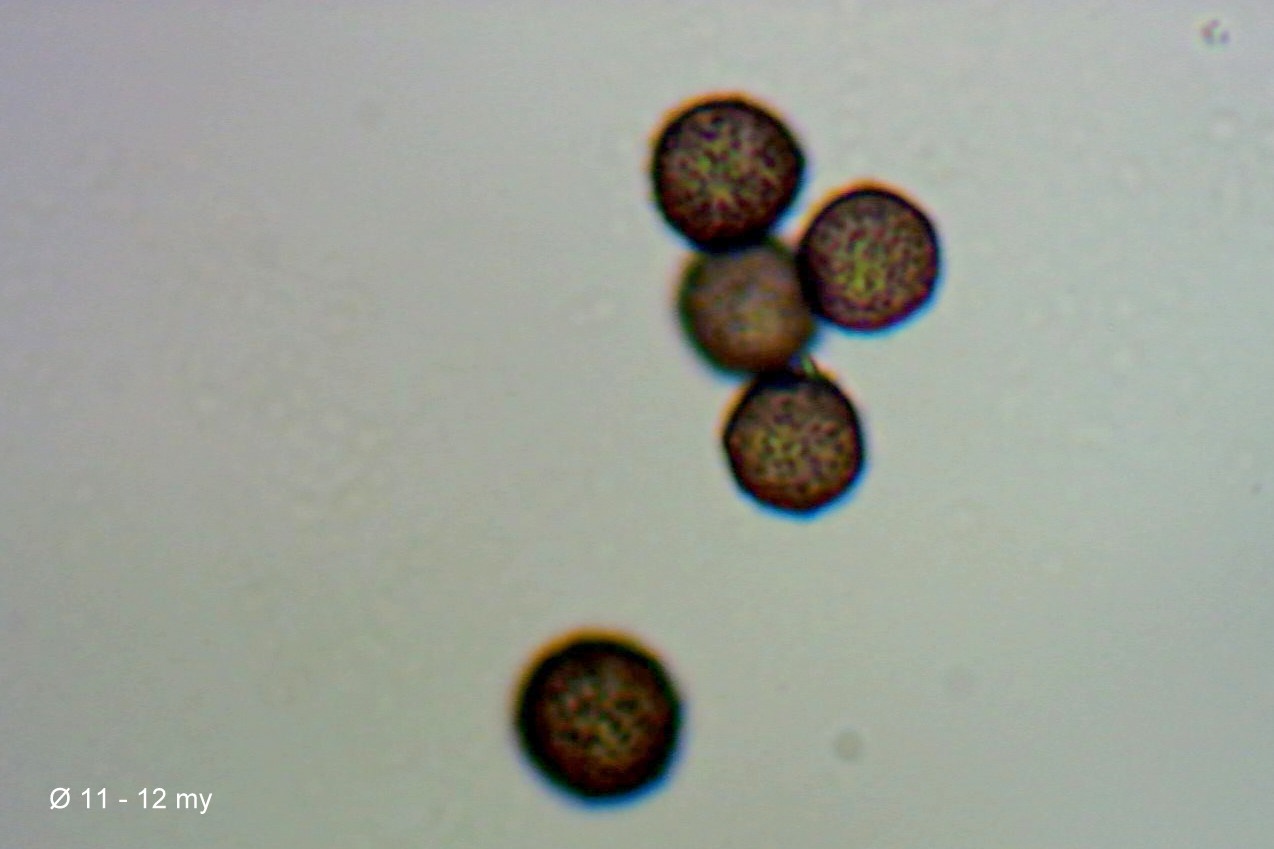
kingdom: Protozoa
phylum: Mycetozoa
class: Myxomycetes
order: Physarales
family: Didymiaceae
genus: Didymium
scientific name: Didymium melanospermum
